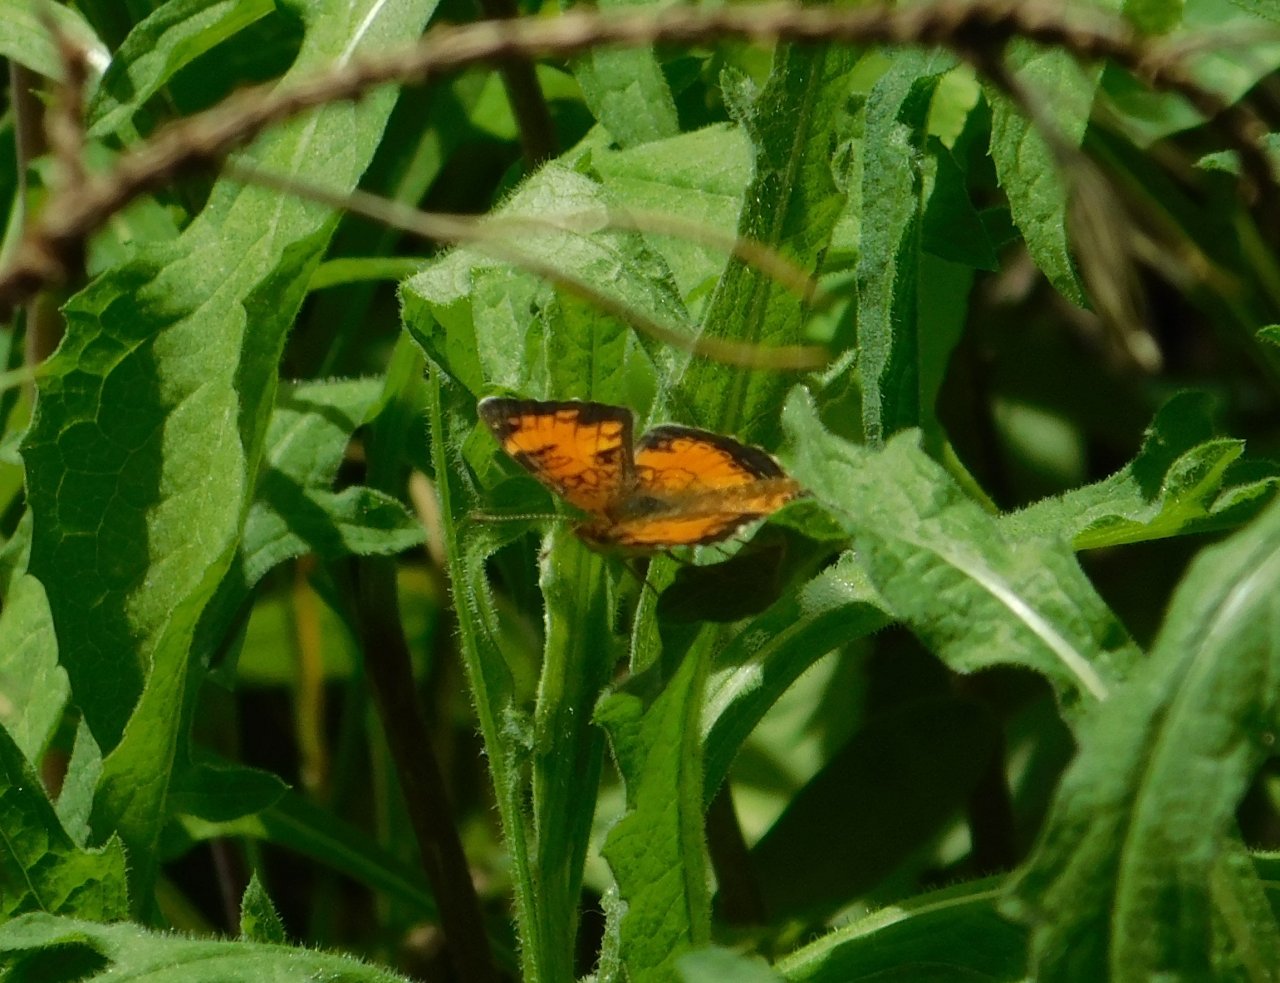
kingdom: Animalia
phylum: Arthropoda
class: Insecta
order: Lepidoptera
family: Nymphalidae
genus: Phyciodes
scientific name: Phyciodes tharos
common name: Northern Crescent
